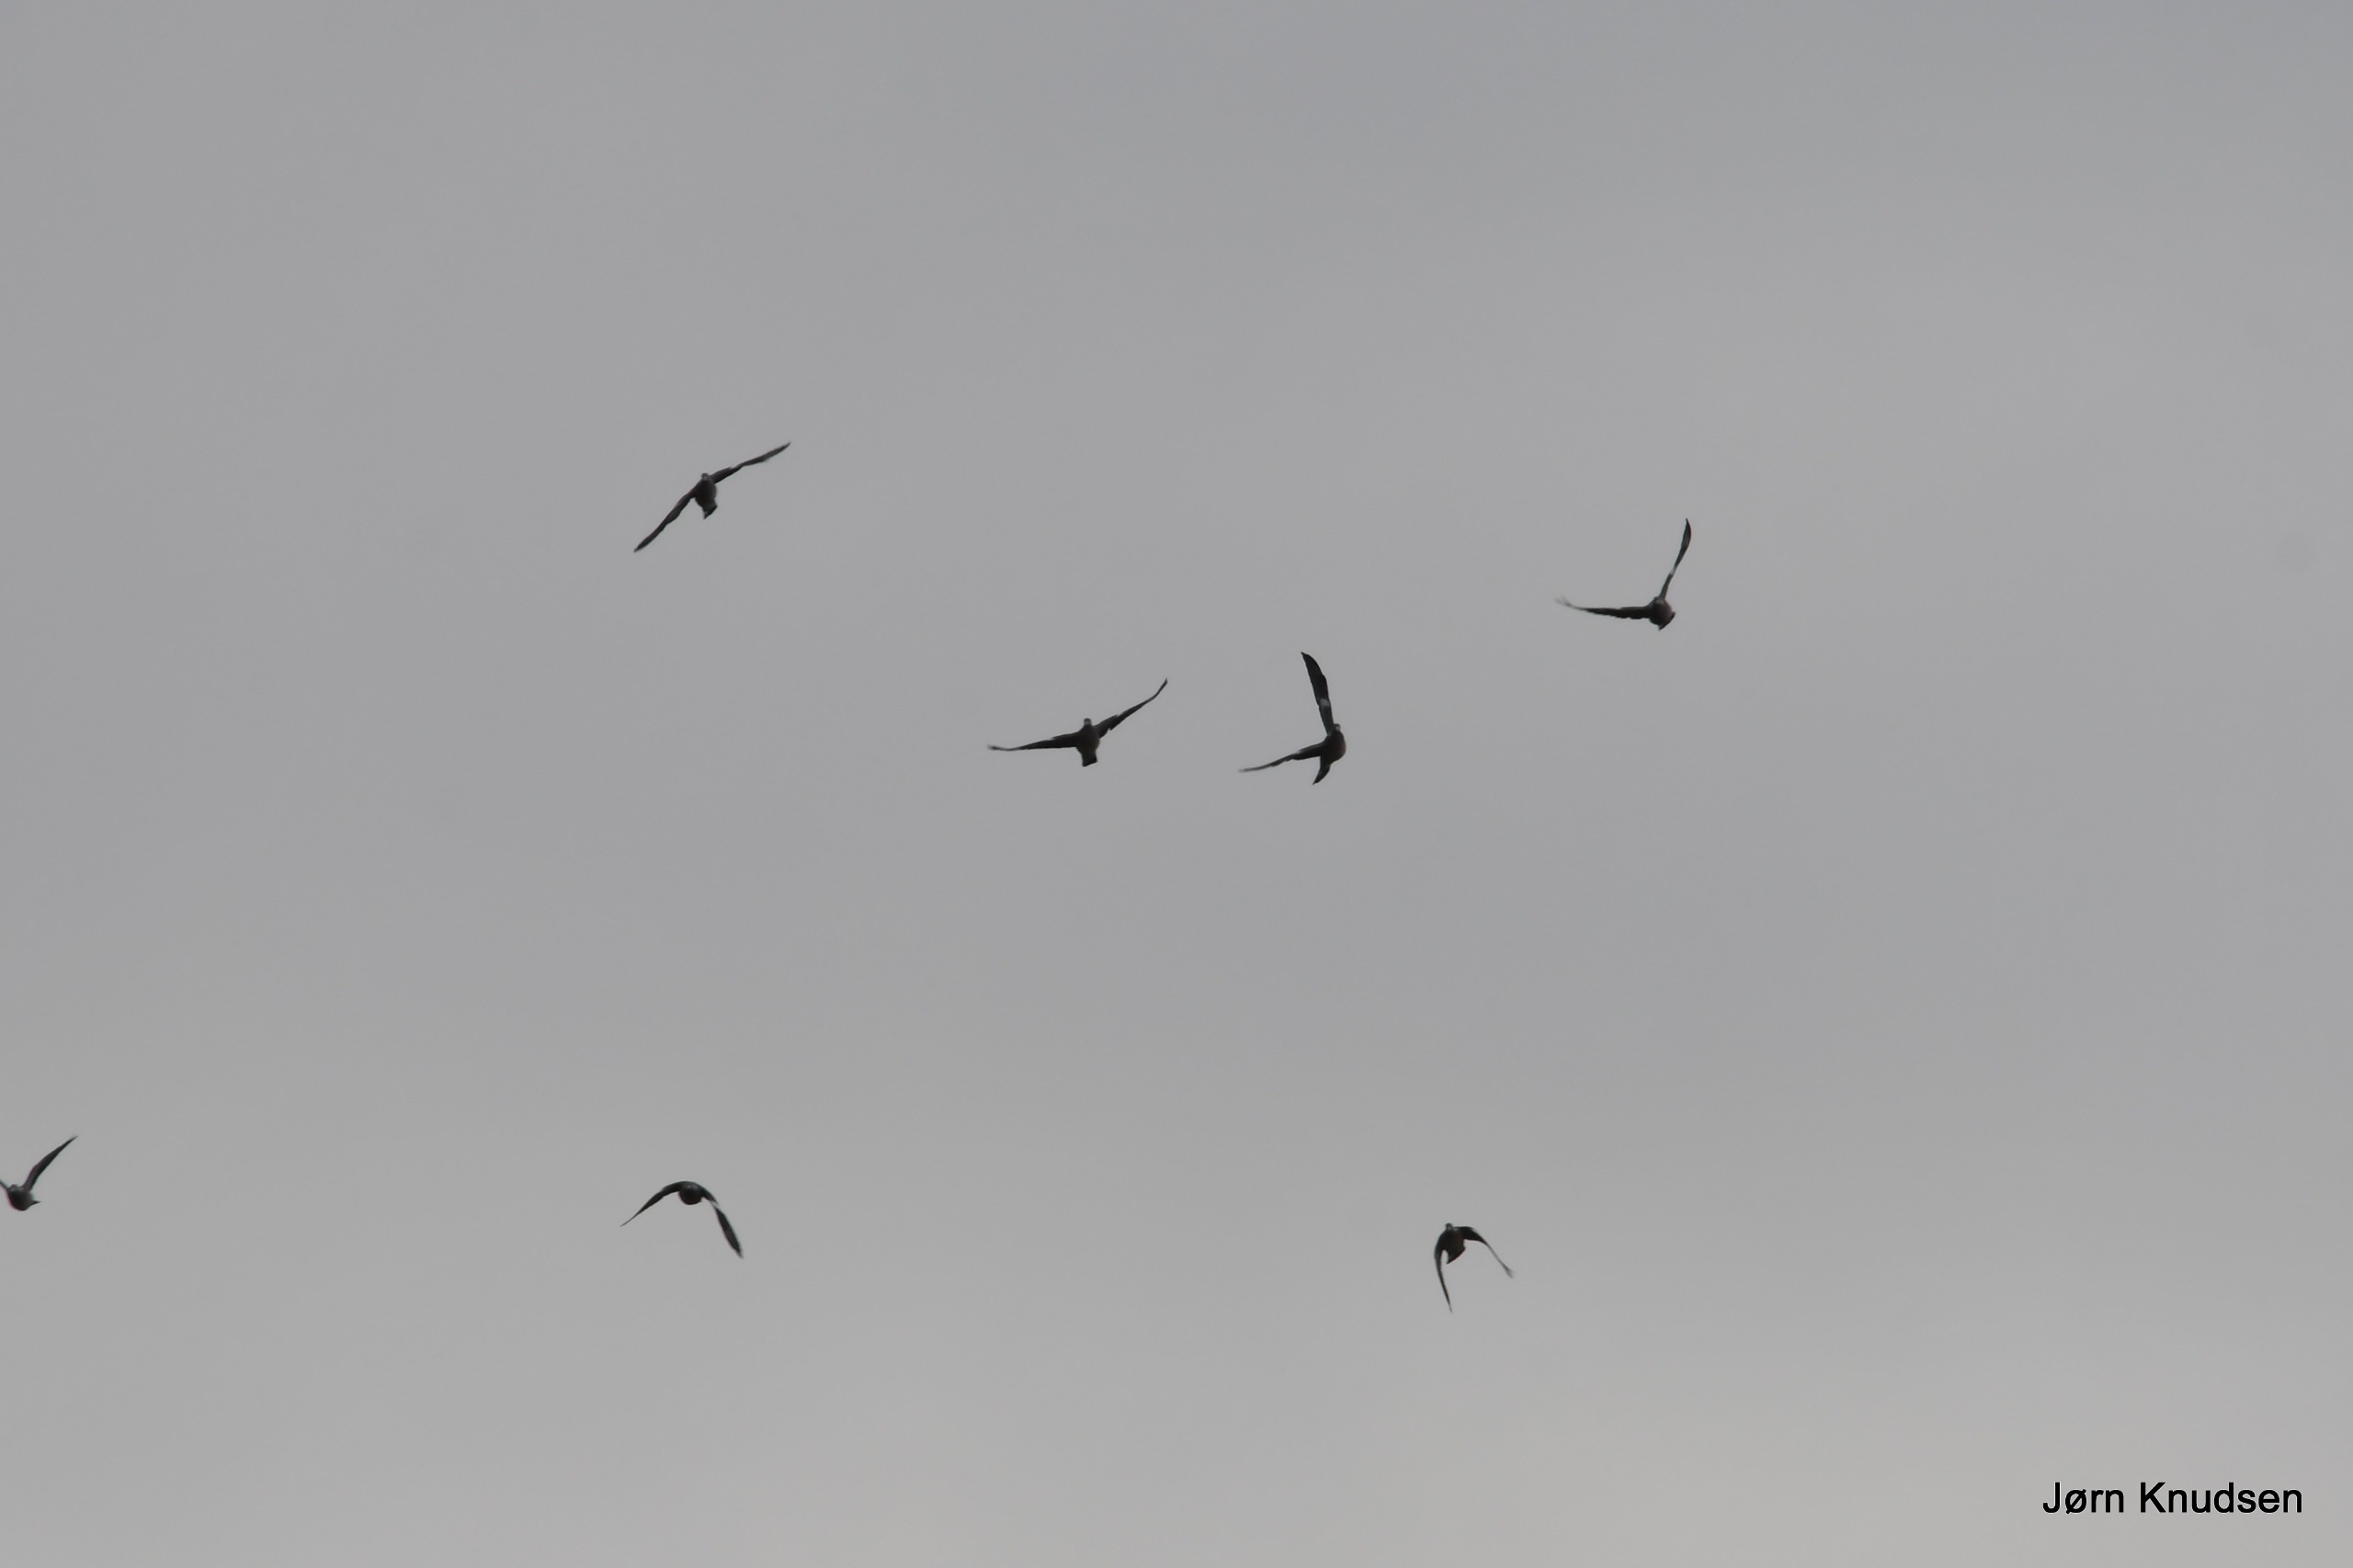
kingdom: Animalia
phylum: Chordata
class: Aves
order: Columbiformes
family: Columbidae
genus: Columba
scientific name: Columba palumbus
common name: Ringdue
